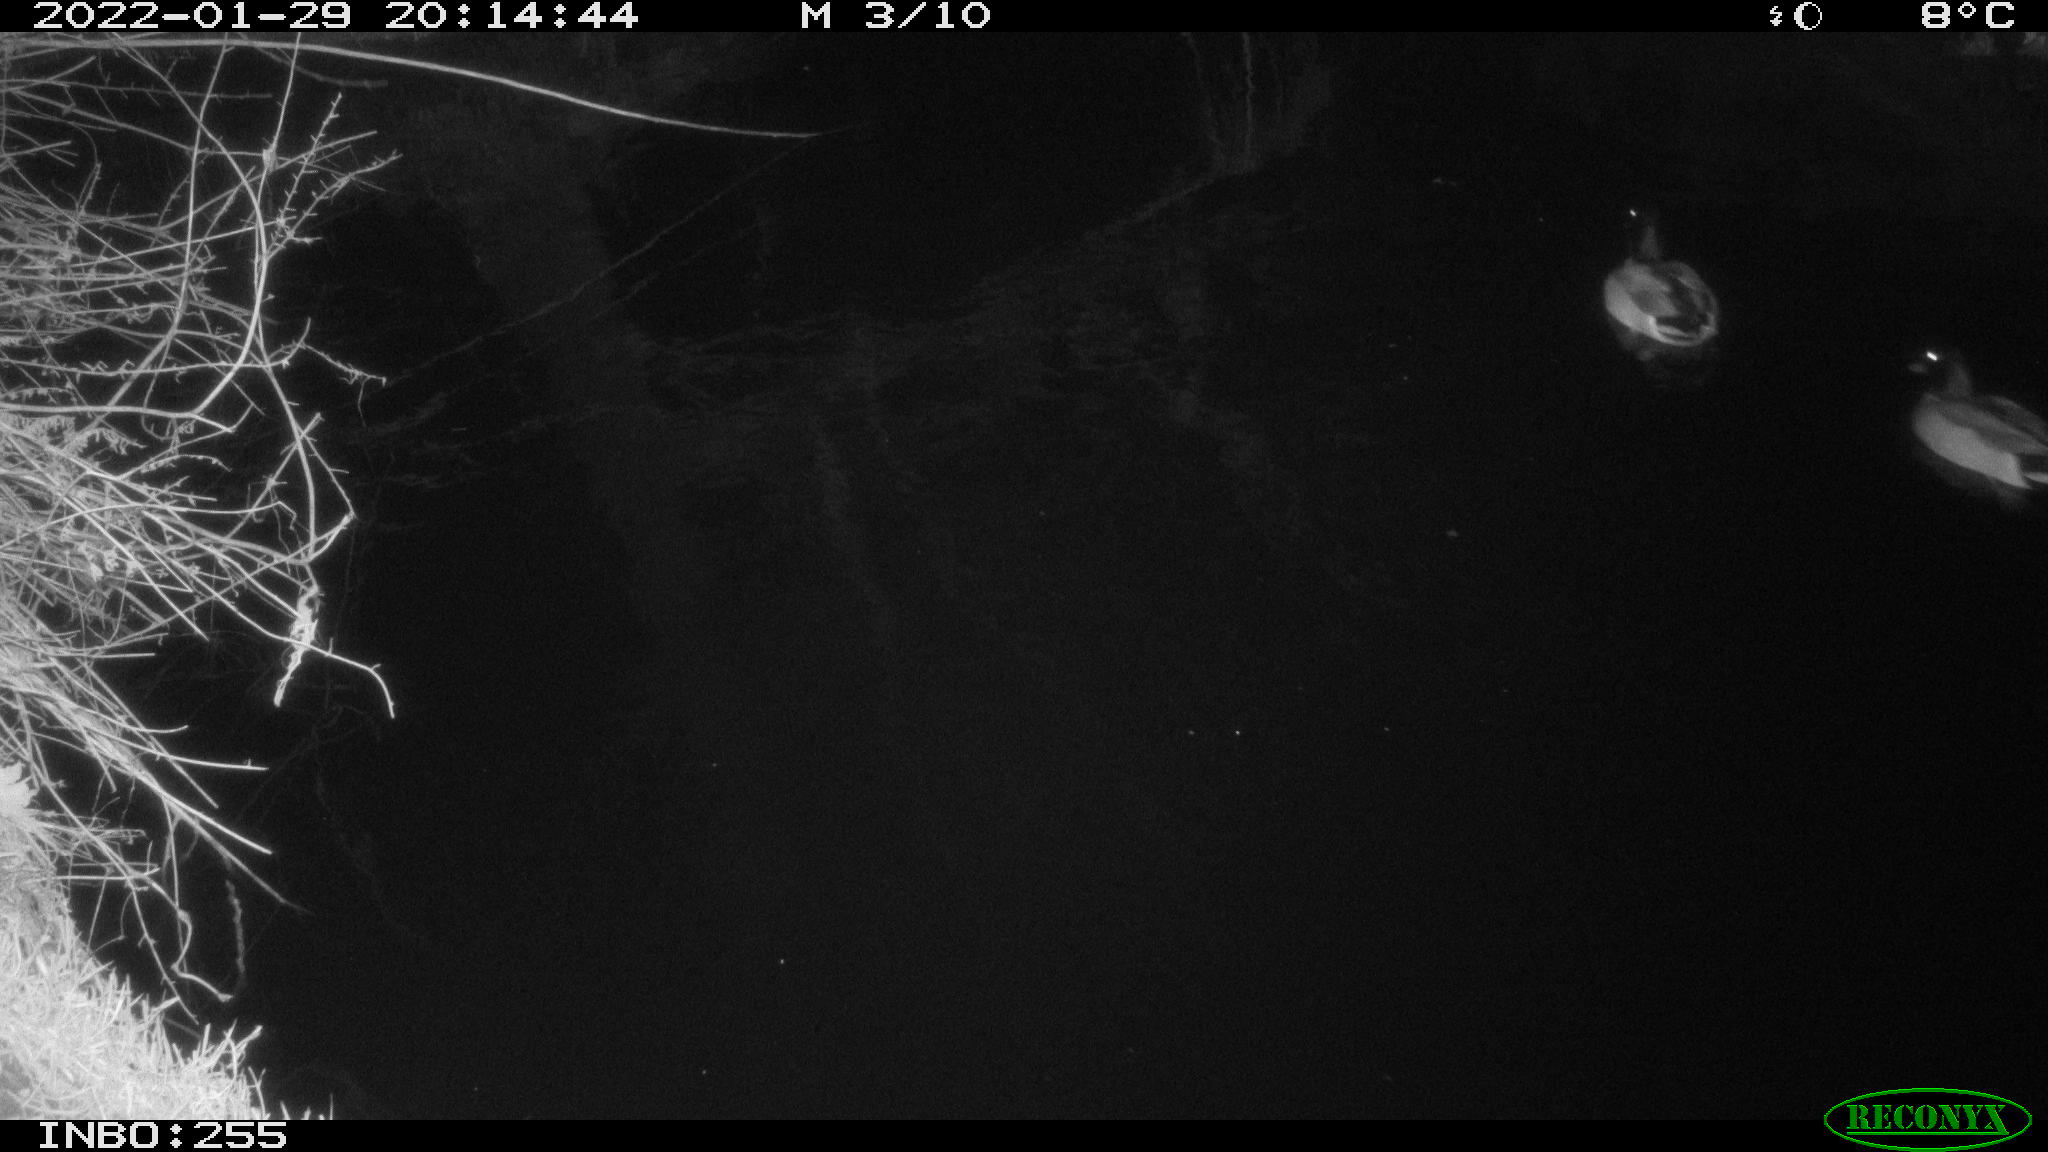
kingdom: Animalia
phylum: Chordata
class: Aves
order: Anseriformes
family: Anatidae
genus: Anas
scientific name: Anas
